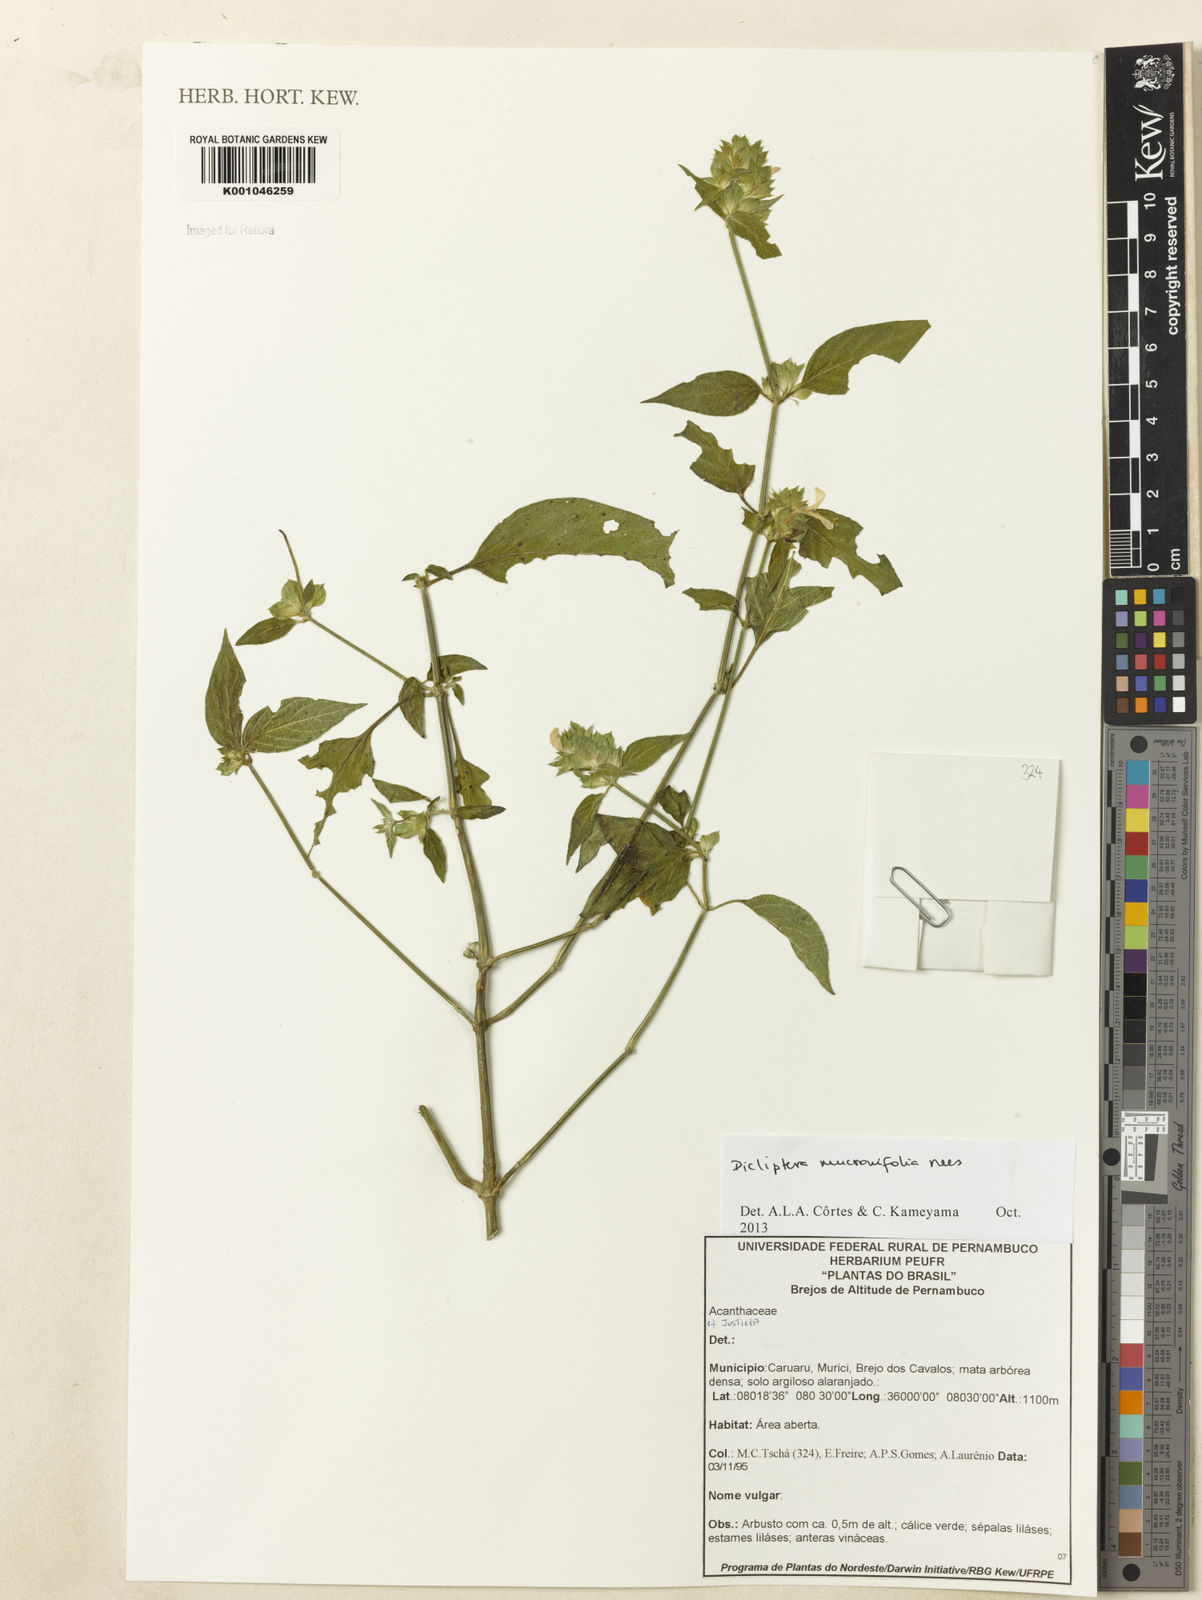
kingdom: Plantae
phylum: Tracheophyta
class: Magnoliopsida
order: Lamiales
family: Acanthaceae
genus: Dicliptera
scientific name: Dicliptera mucronifolia
